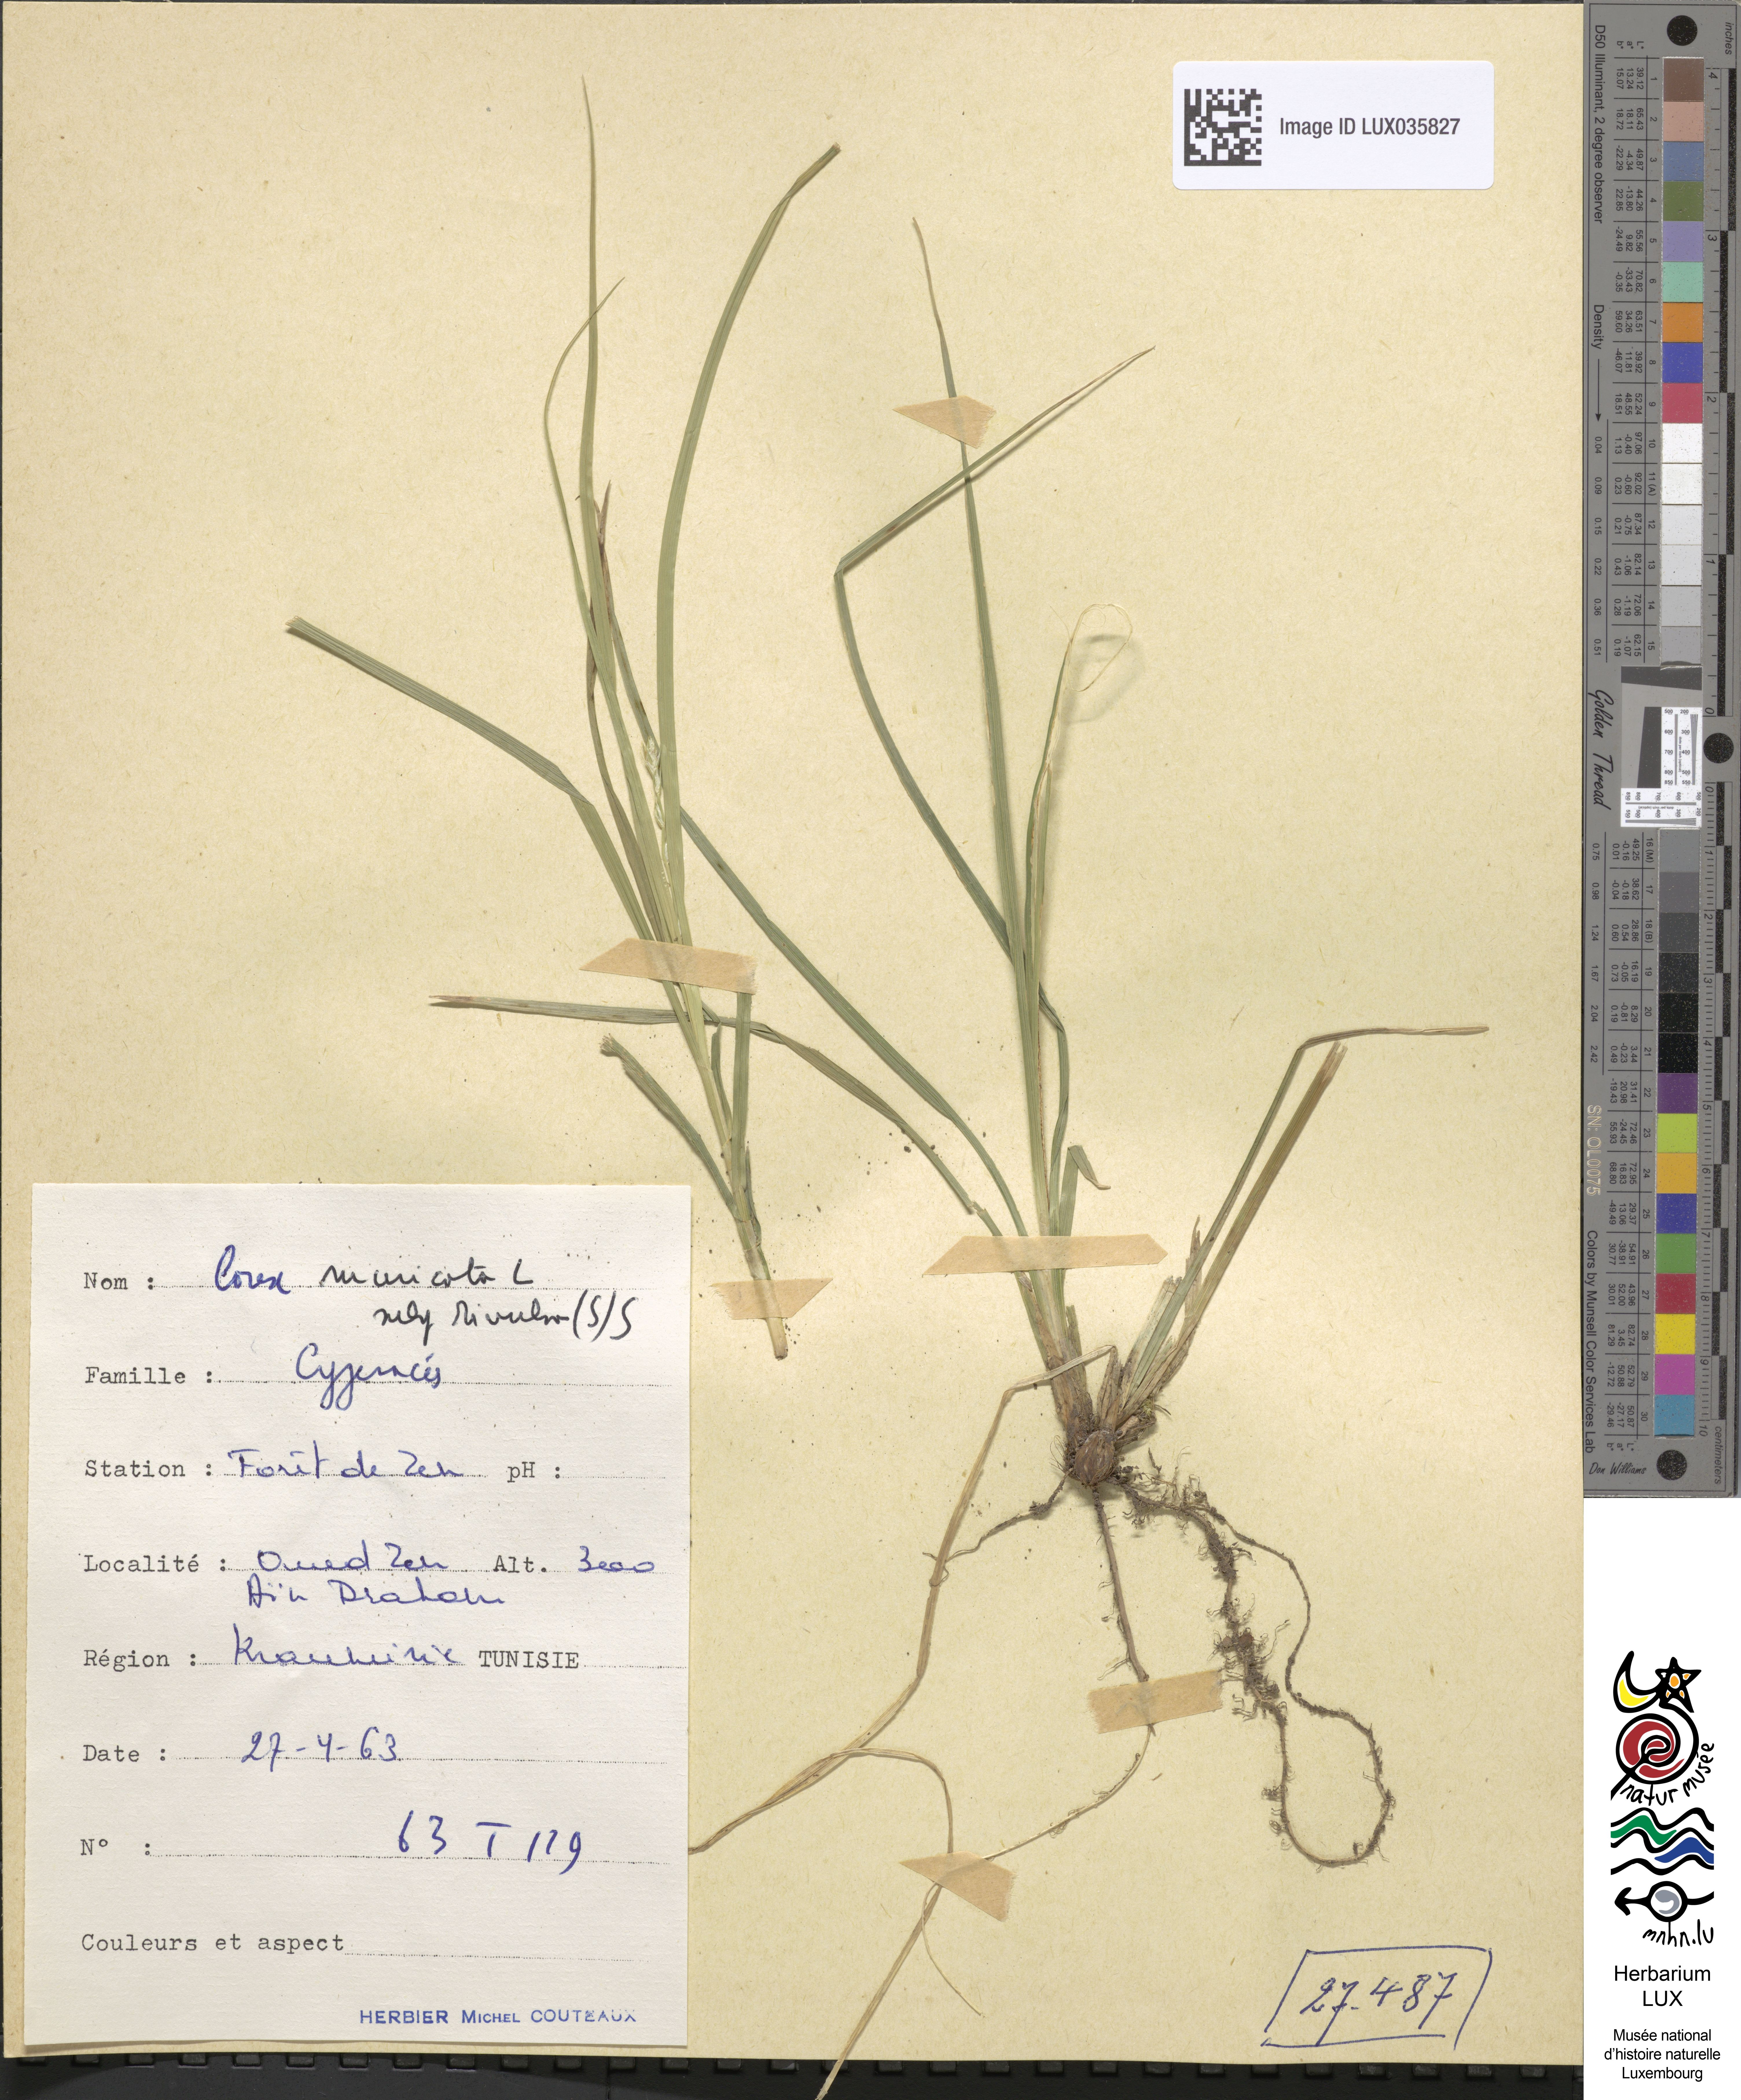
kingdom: Plantae
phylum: Tracheophyta
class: Liliopsida
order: Poales
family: Cyperaceae
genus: Carex
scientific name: Carex divulsa
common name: Grassland sedge
